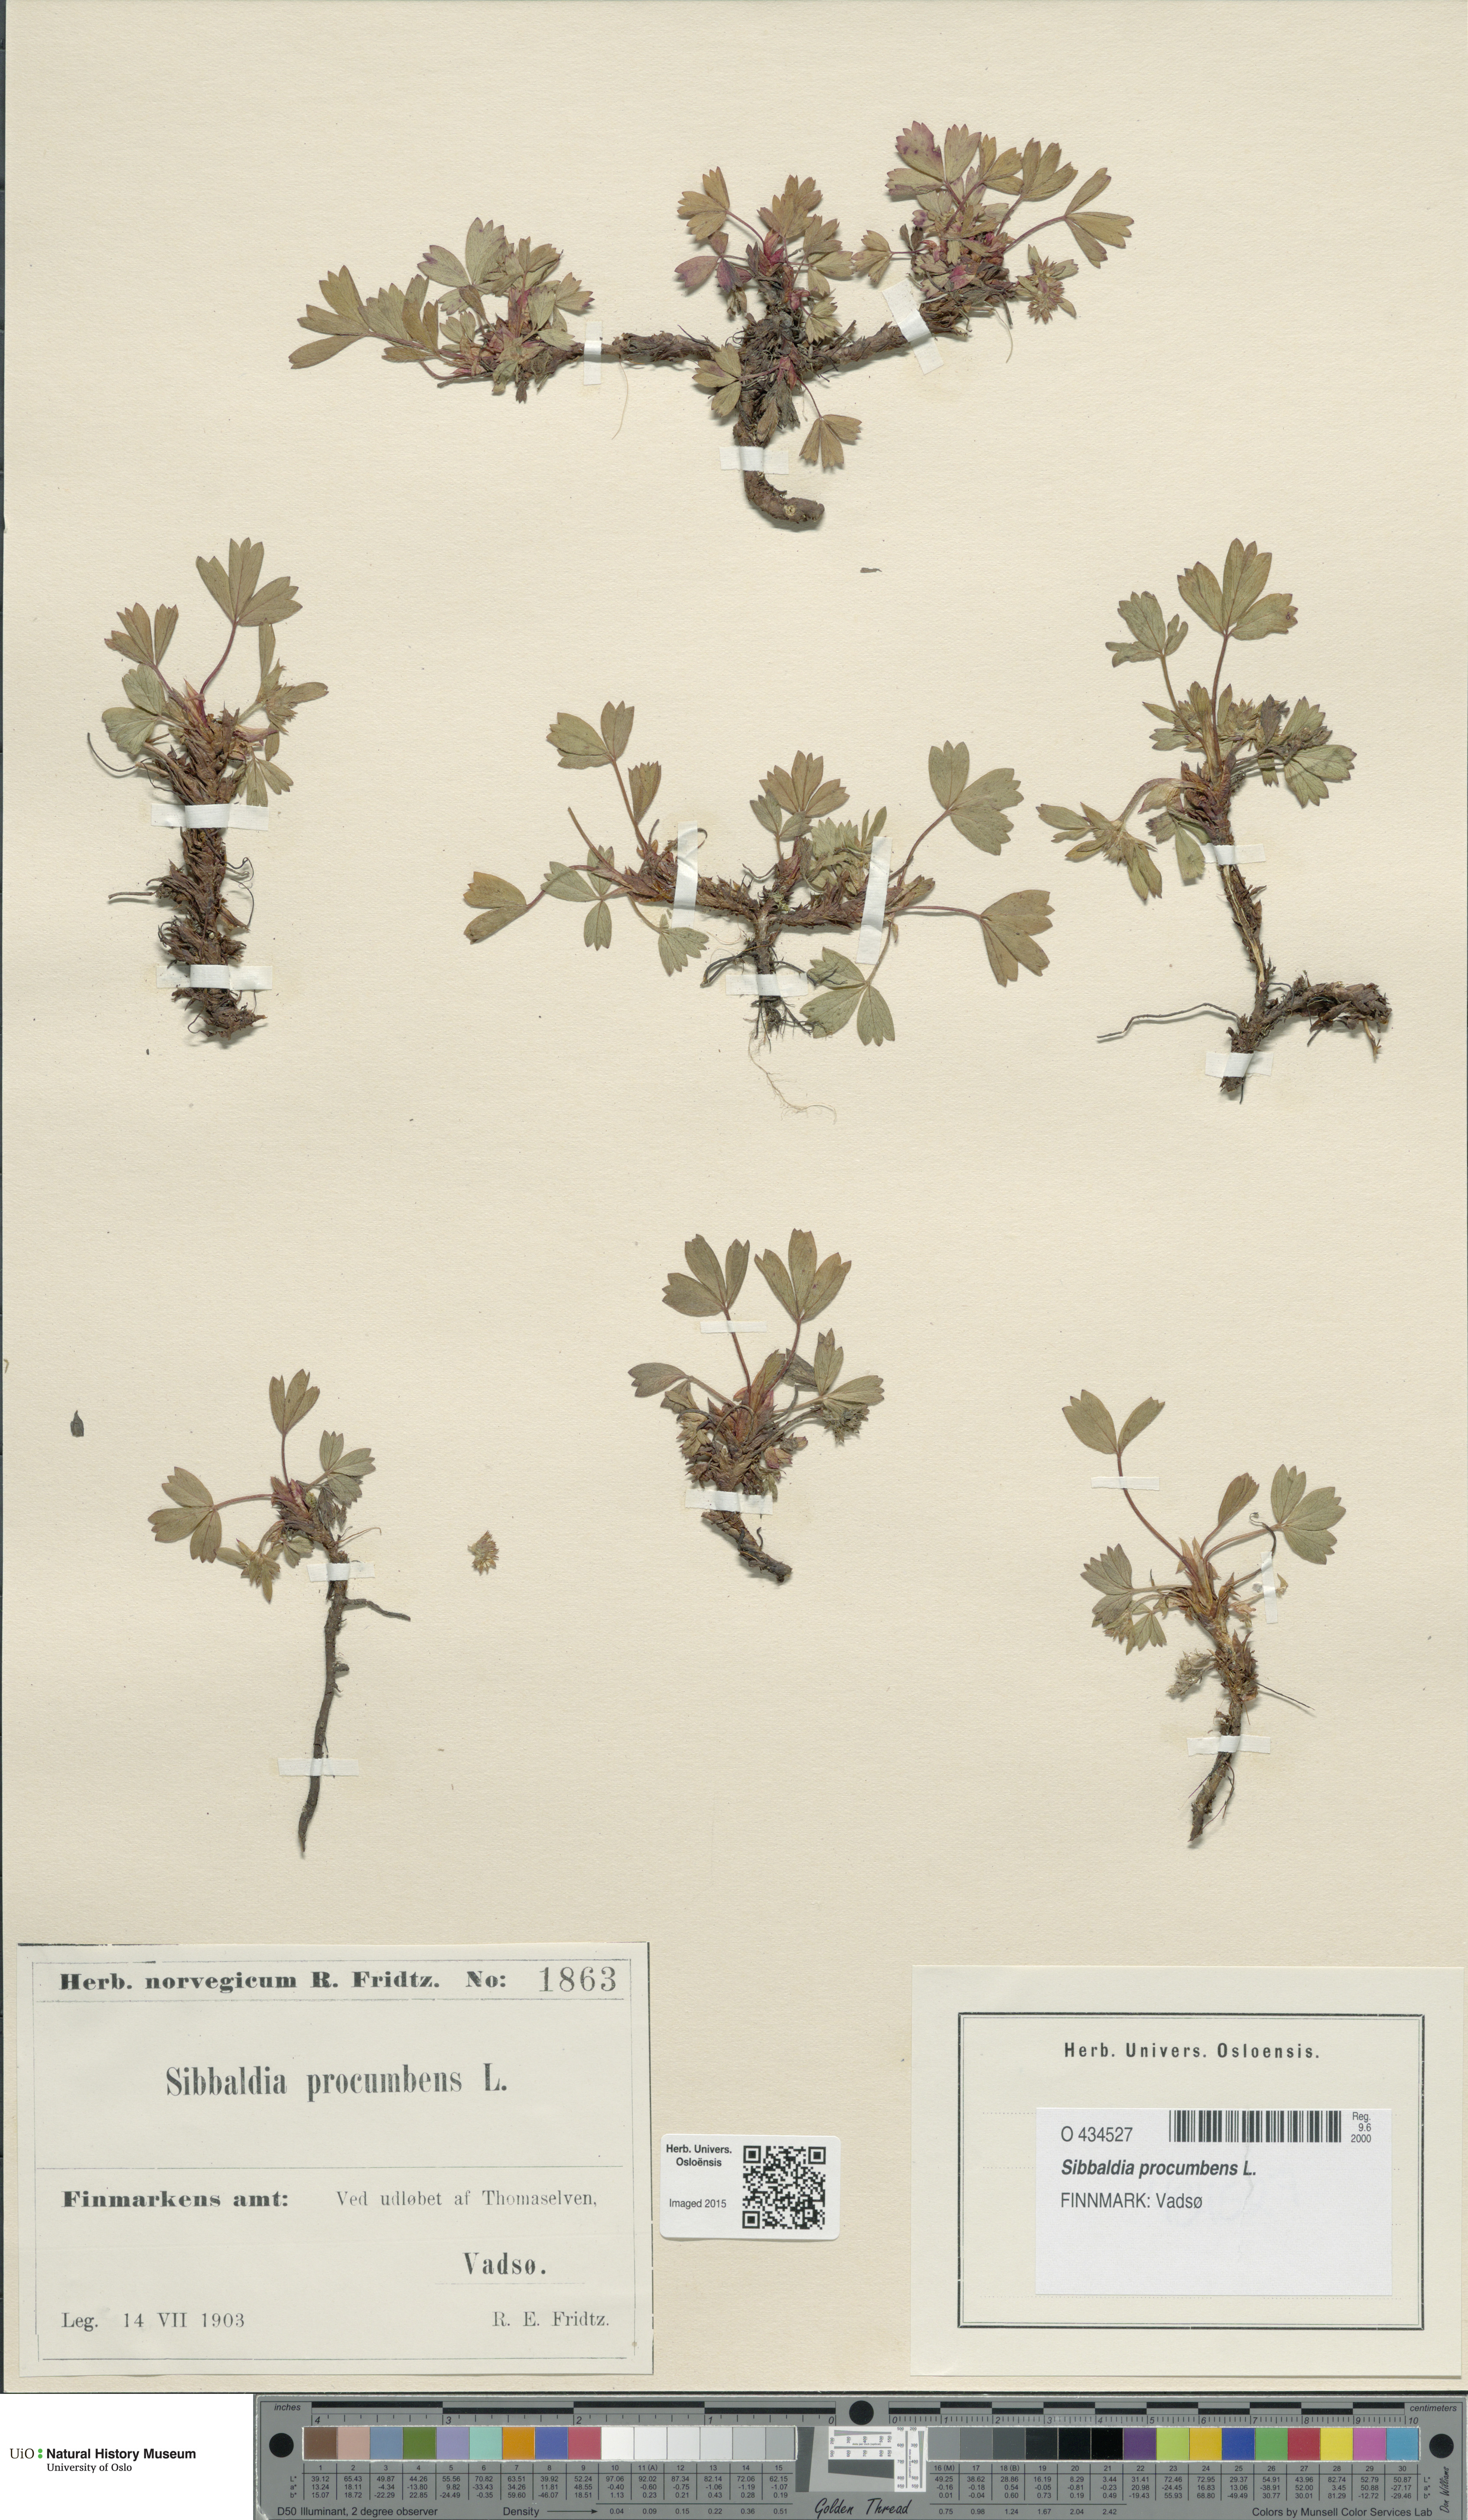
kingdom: Plantae
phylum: Tracheophyta
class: Magnoliopsida
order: Rosales
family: Rosaceae
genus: Sibbaldia
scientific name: Sibbaldia procumbens
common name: Creeping sibbaldia
